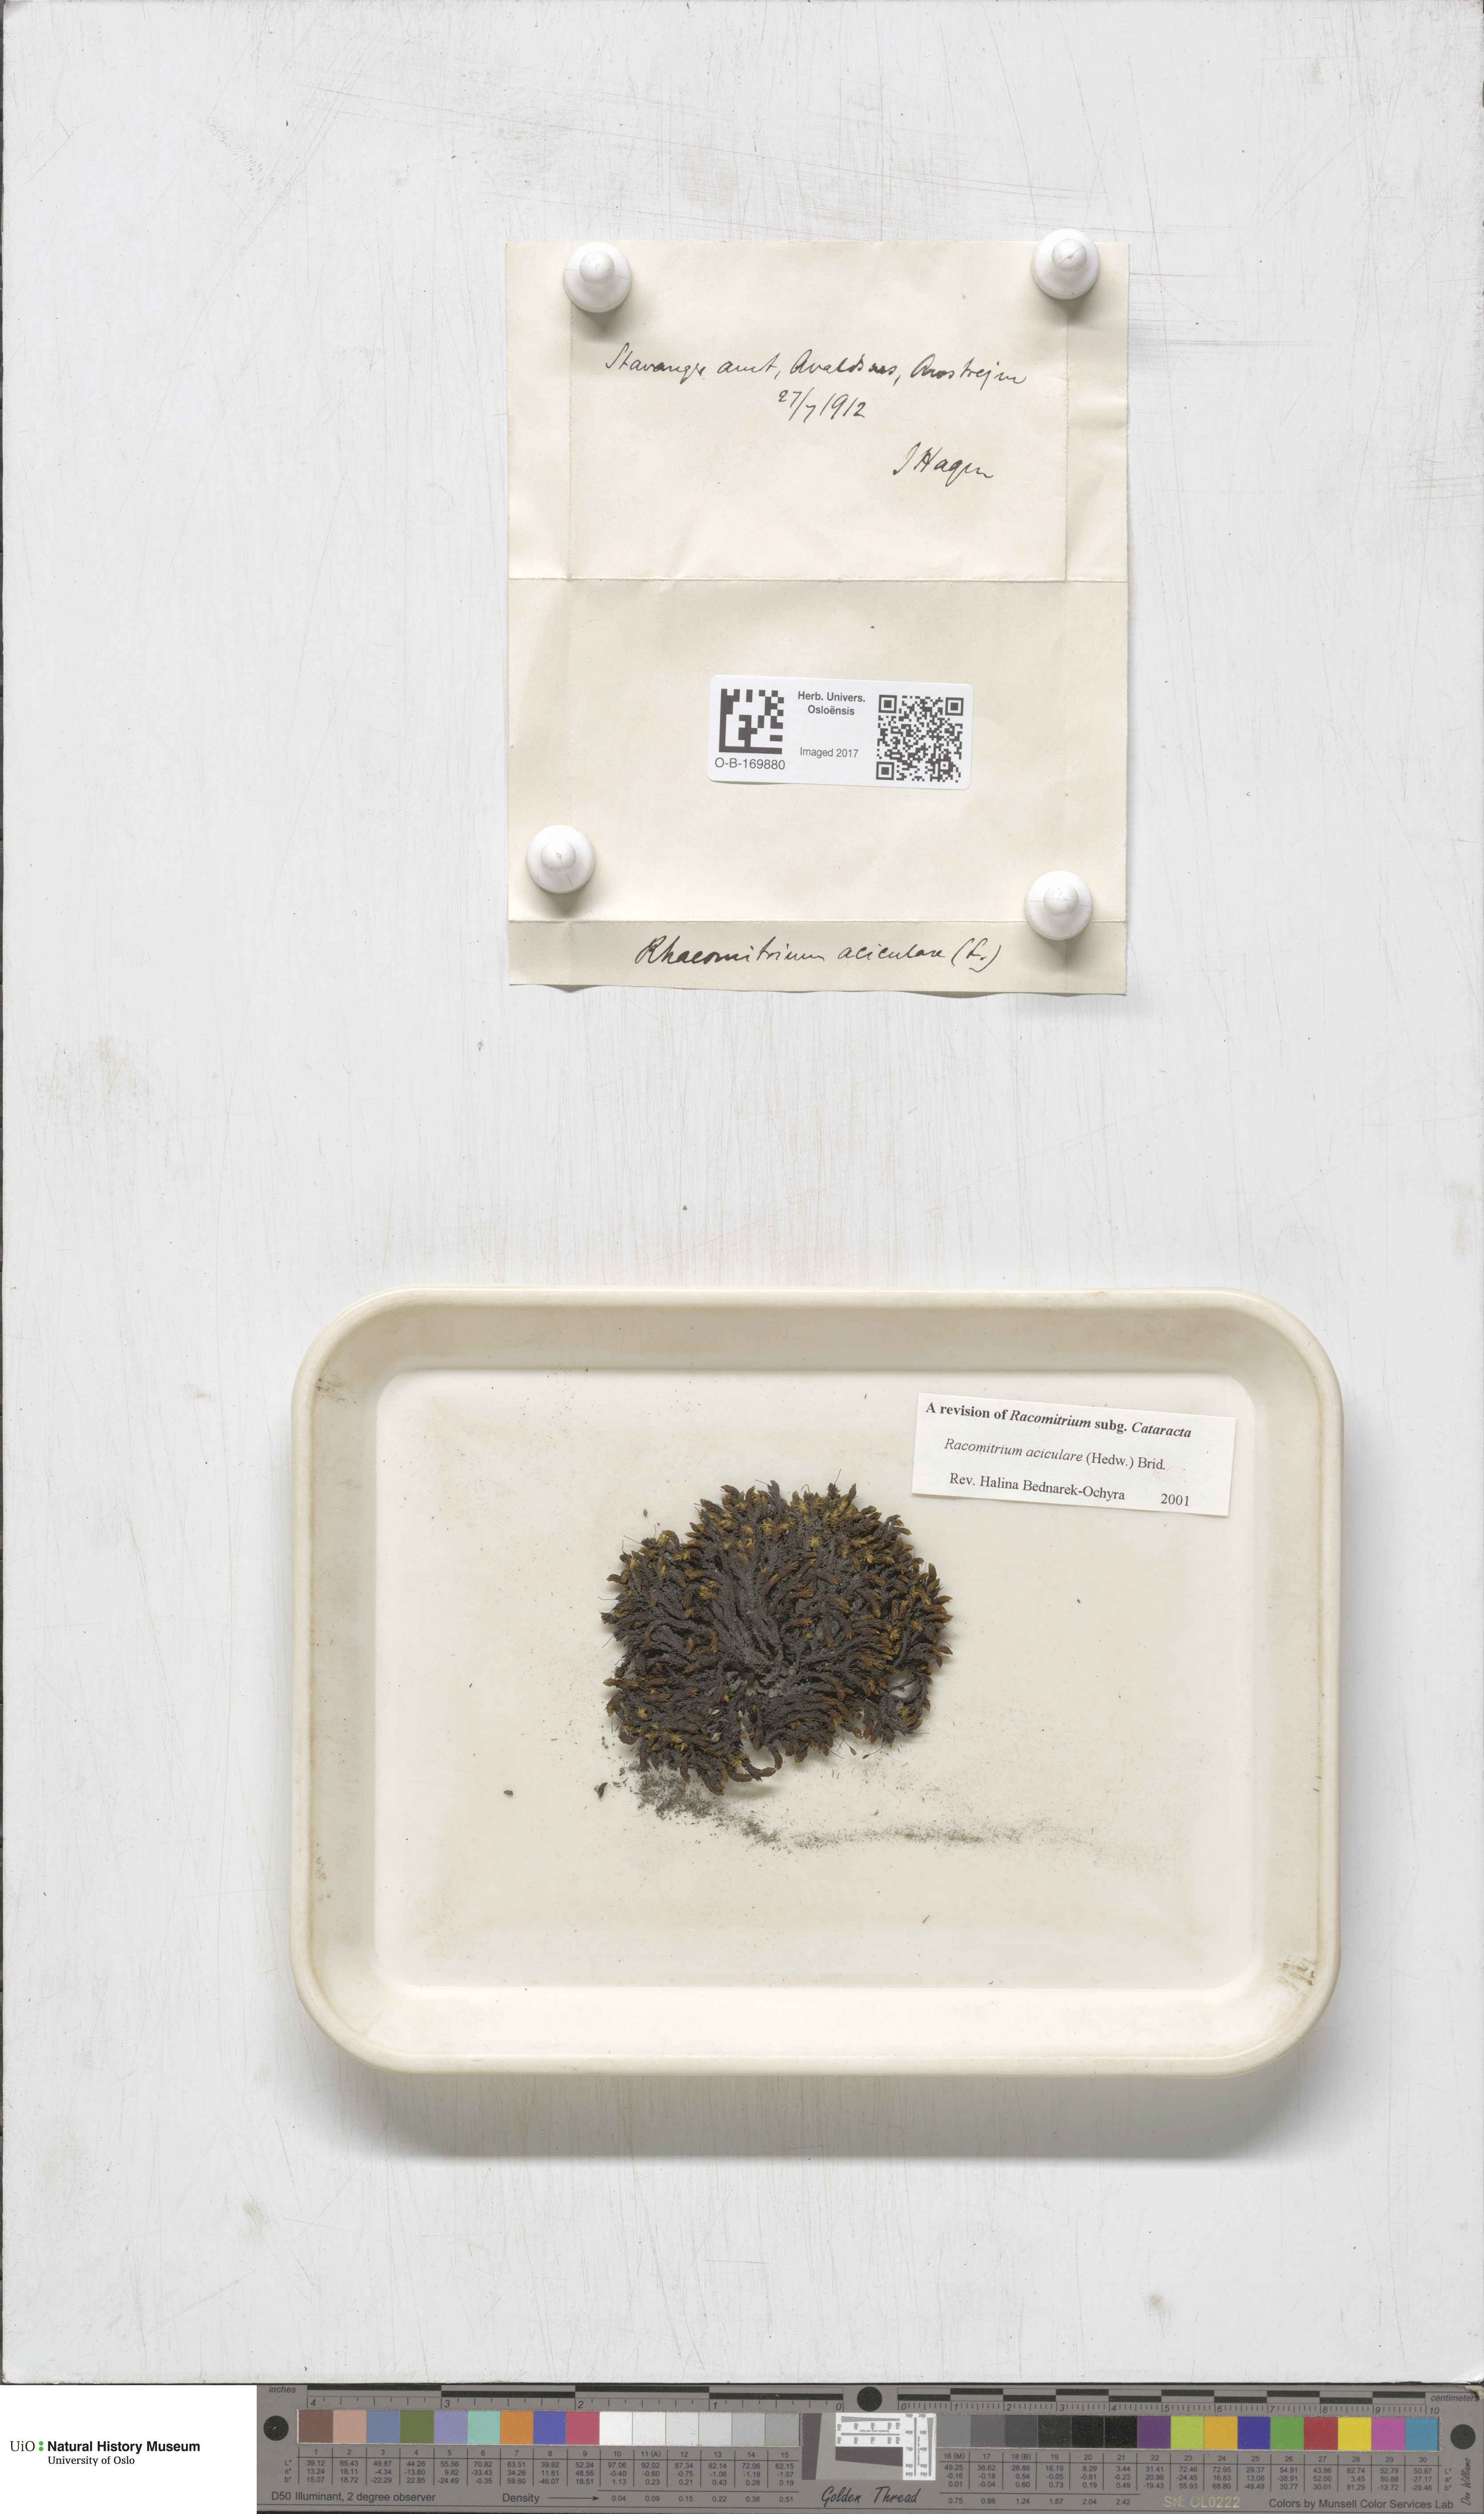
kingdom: Plantae
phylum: Bryophyta
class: Bryopsida
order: Grimmiales
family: Grimmiaceae
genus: Codriophorus
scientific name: Codriophorus acicularis
